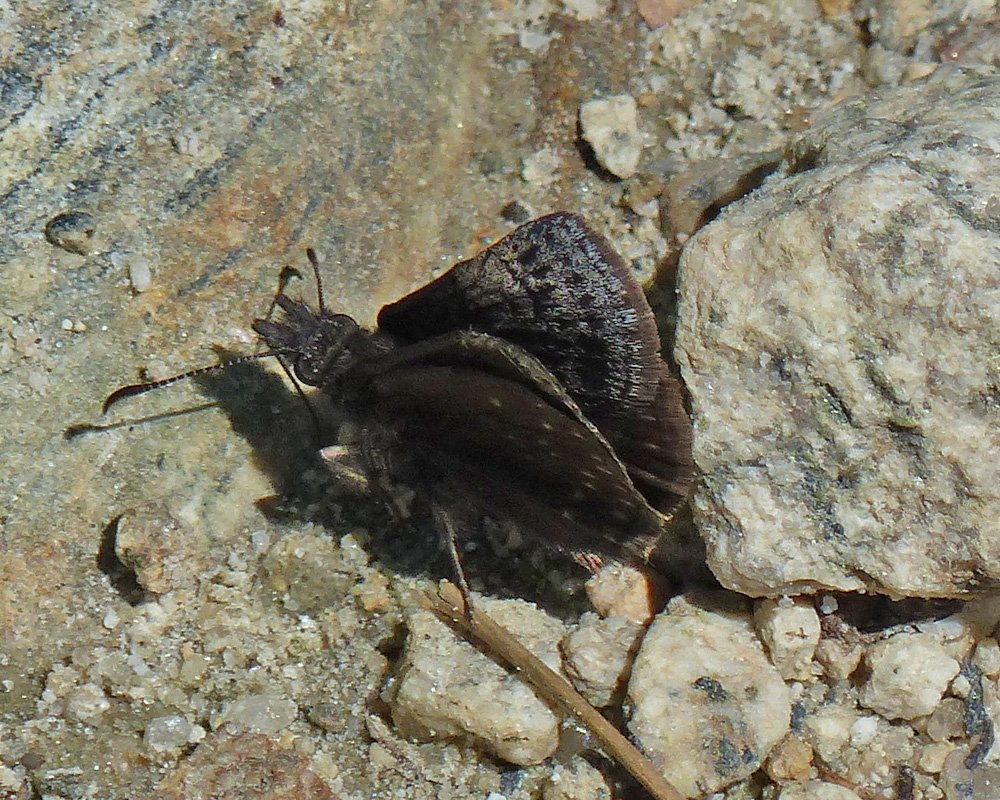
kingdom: Animalia
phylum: Arthropoda
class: Insecta
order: Lepidoptera
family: Hesperiidae
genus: Erynnis
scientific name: Erynnis icelus
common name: Dreamy Duskywing
